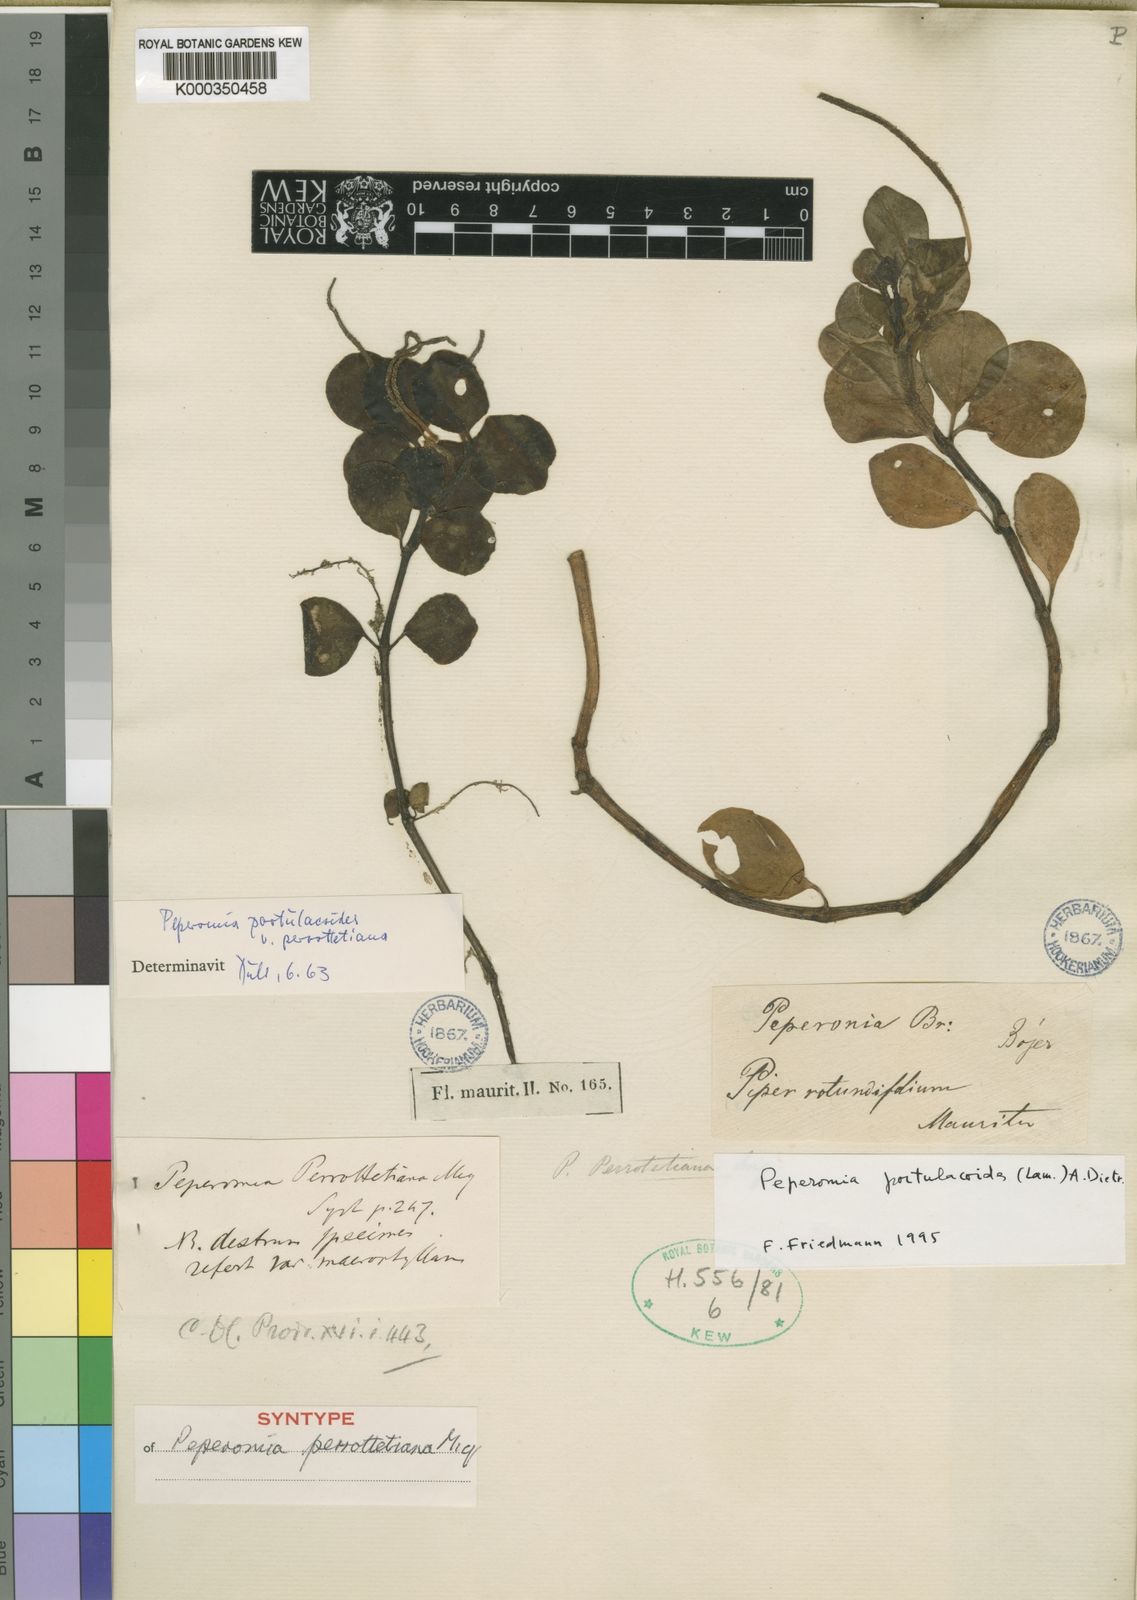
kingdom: Plantae
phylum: Tracheophyta
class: Magnoliopsida
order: Piperales
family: Piperaceae
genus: Peperomia
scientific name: Peperomia portulacoides
